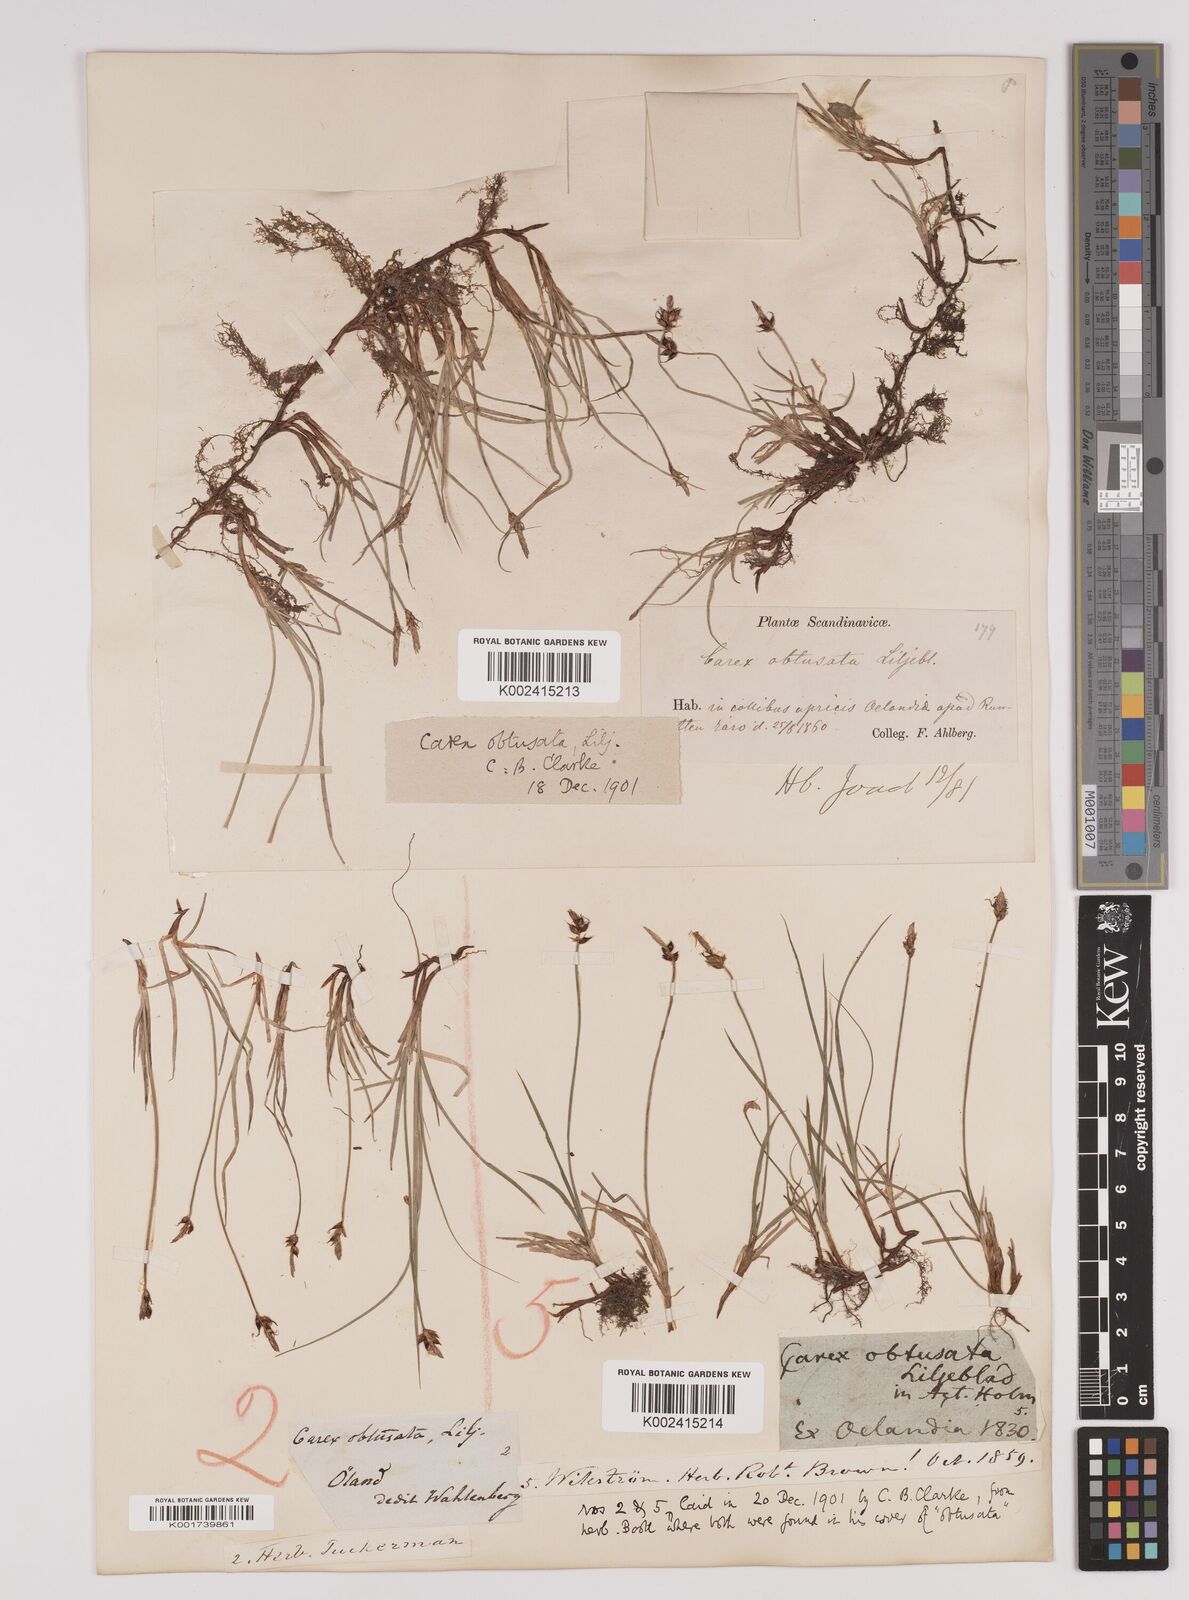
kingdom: Plantae
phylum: Tracheophyta
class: Liliopsida
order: Poales
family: Cyperaceae
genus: Carex
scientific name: Carex obtusata
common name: Blunt sedge
